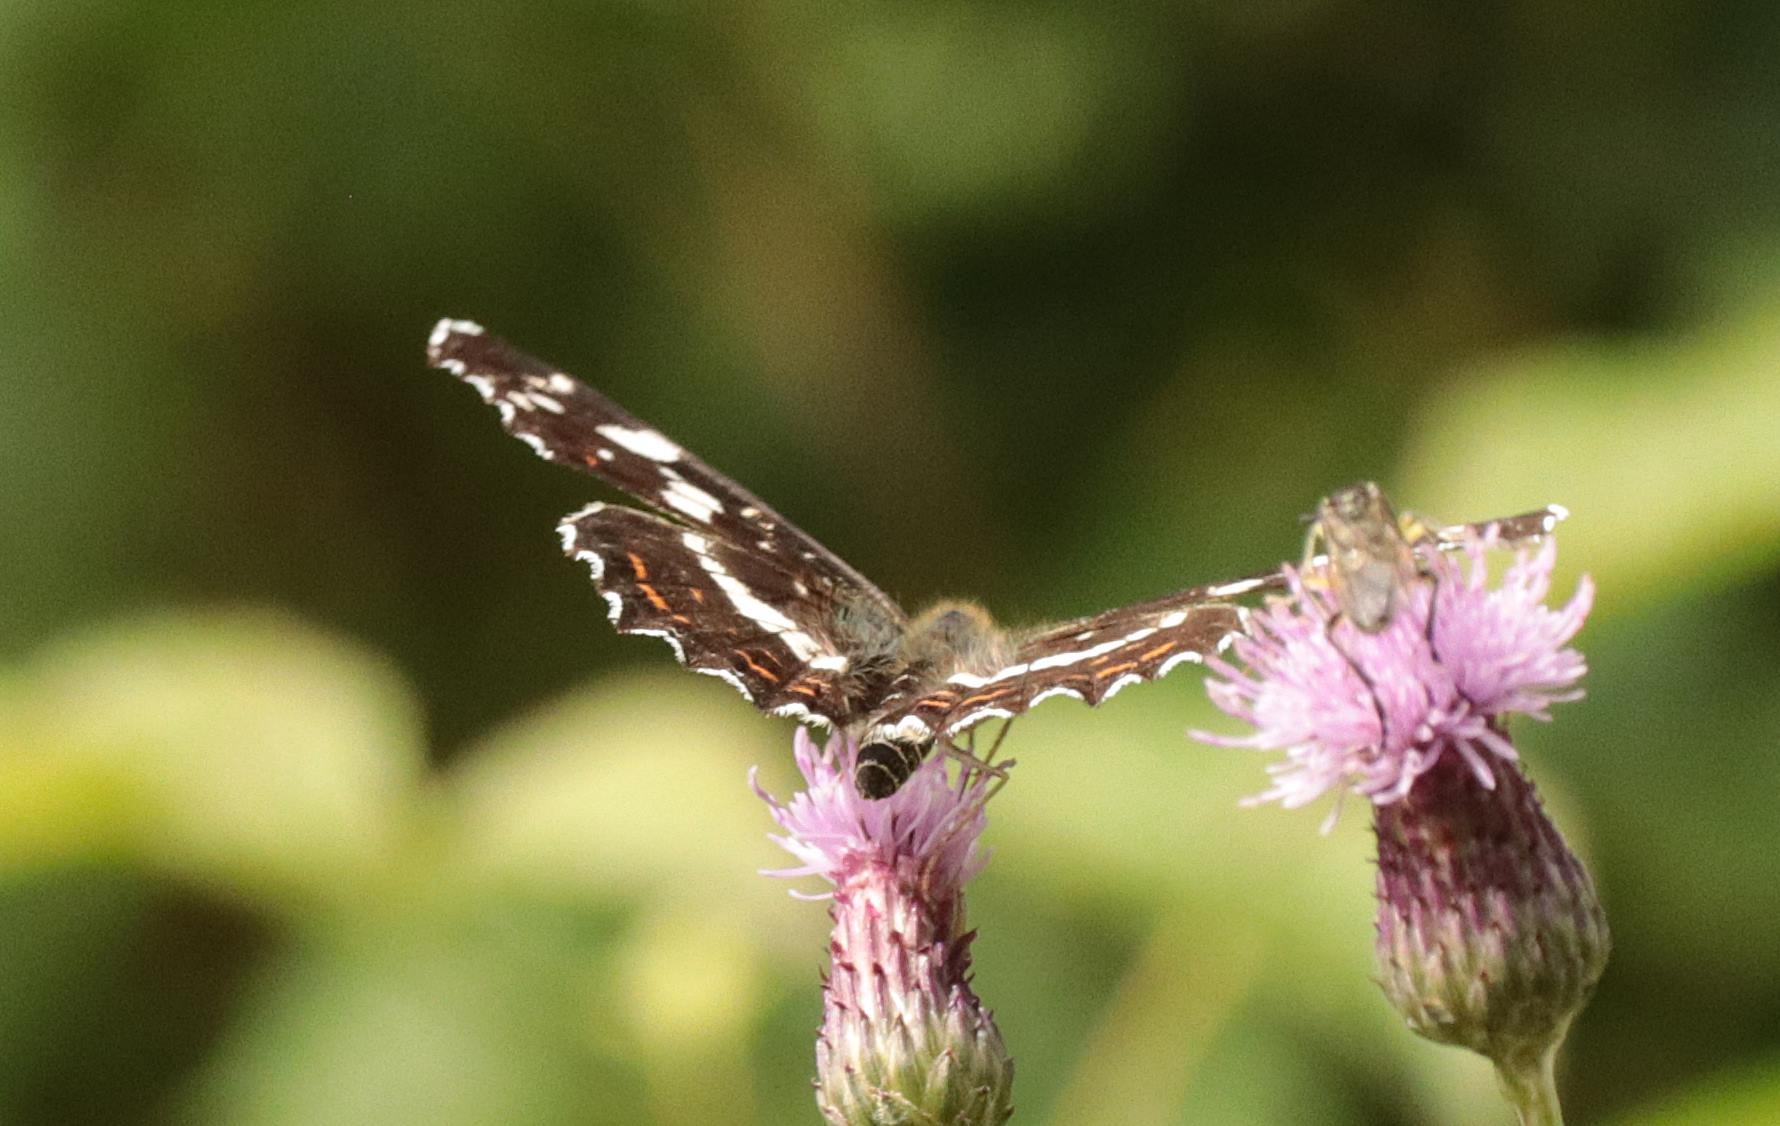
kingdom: Animalia
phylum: Arthropoda
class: Insecta
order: Lepidoptera
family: Nymphalidae
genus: Araschnia
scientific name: Araschnia levana
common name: Nældesommerfugl
